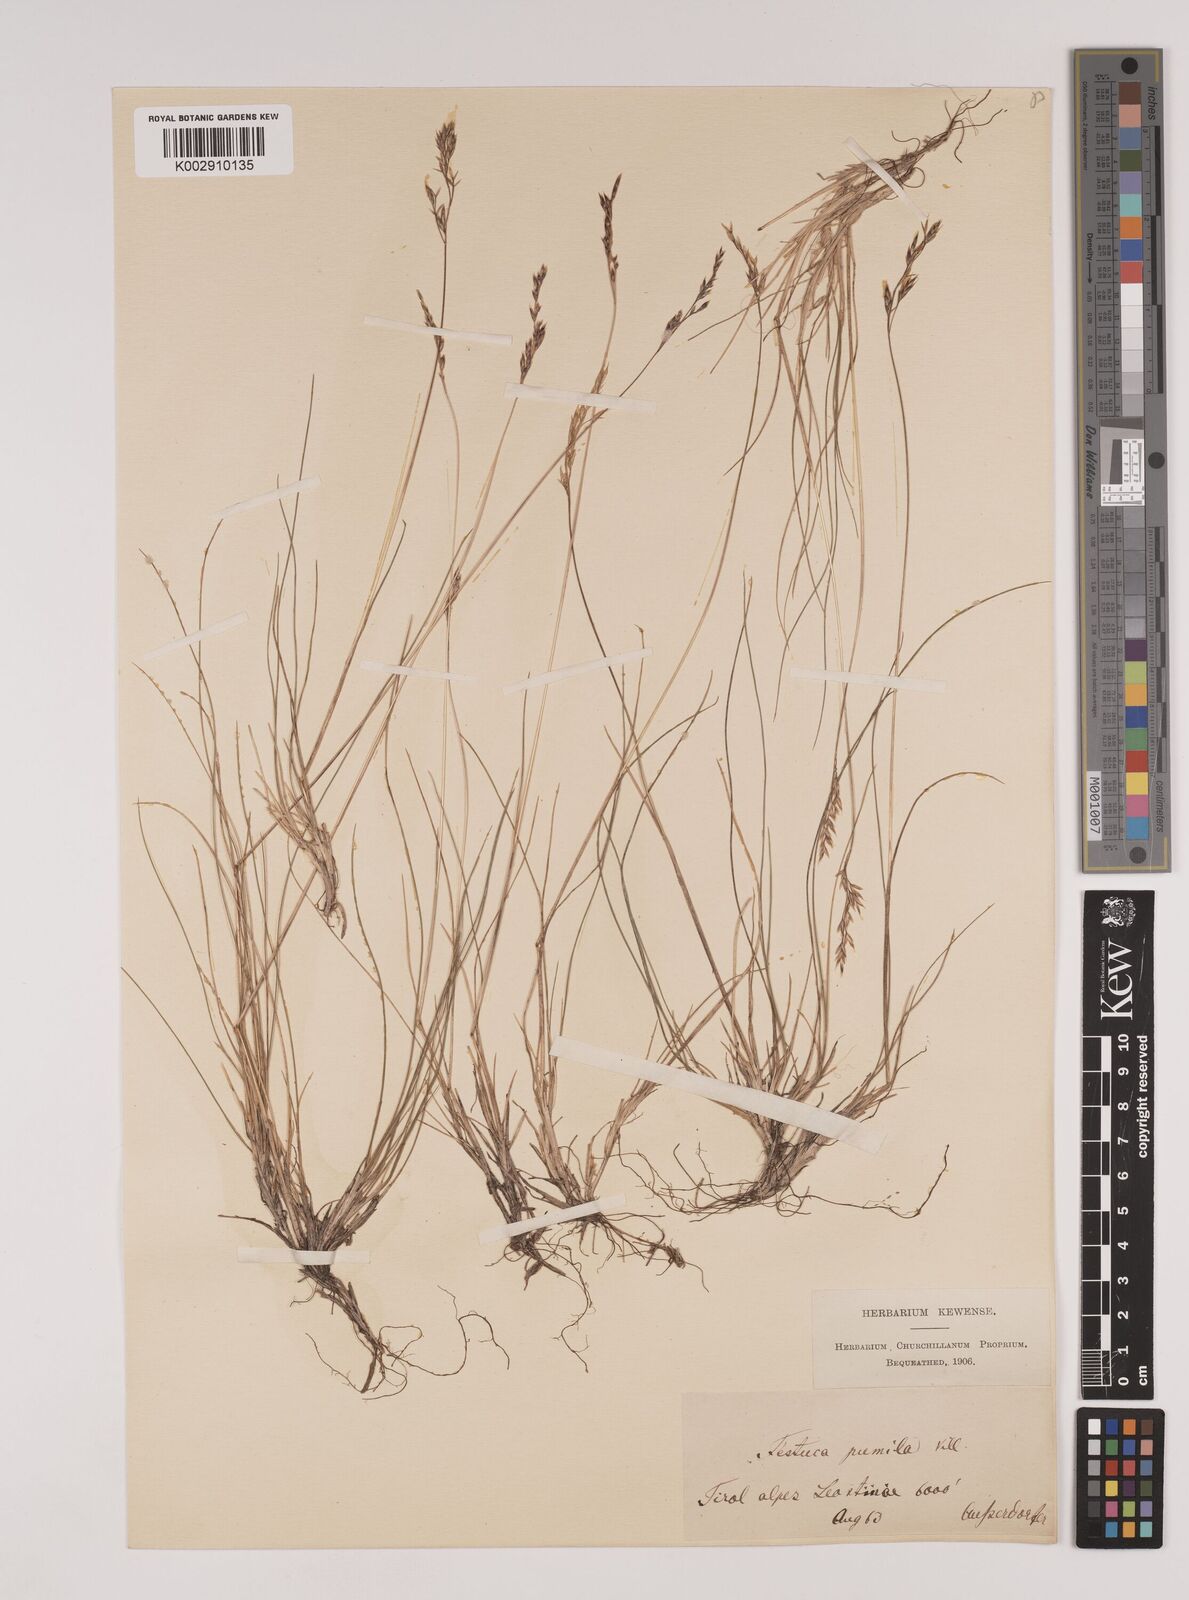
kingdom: Plantae
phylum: Tracheophyta
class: Liliopsida
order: Poales
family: Poaceae
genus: Festuca
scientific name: Festuca
